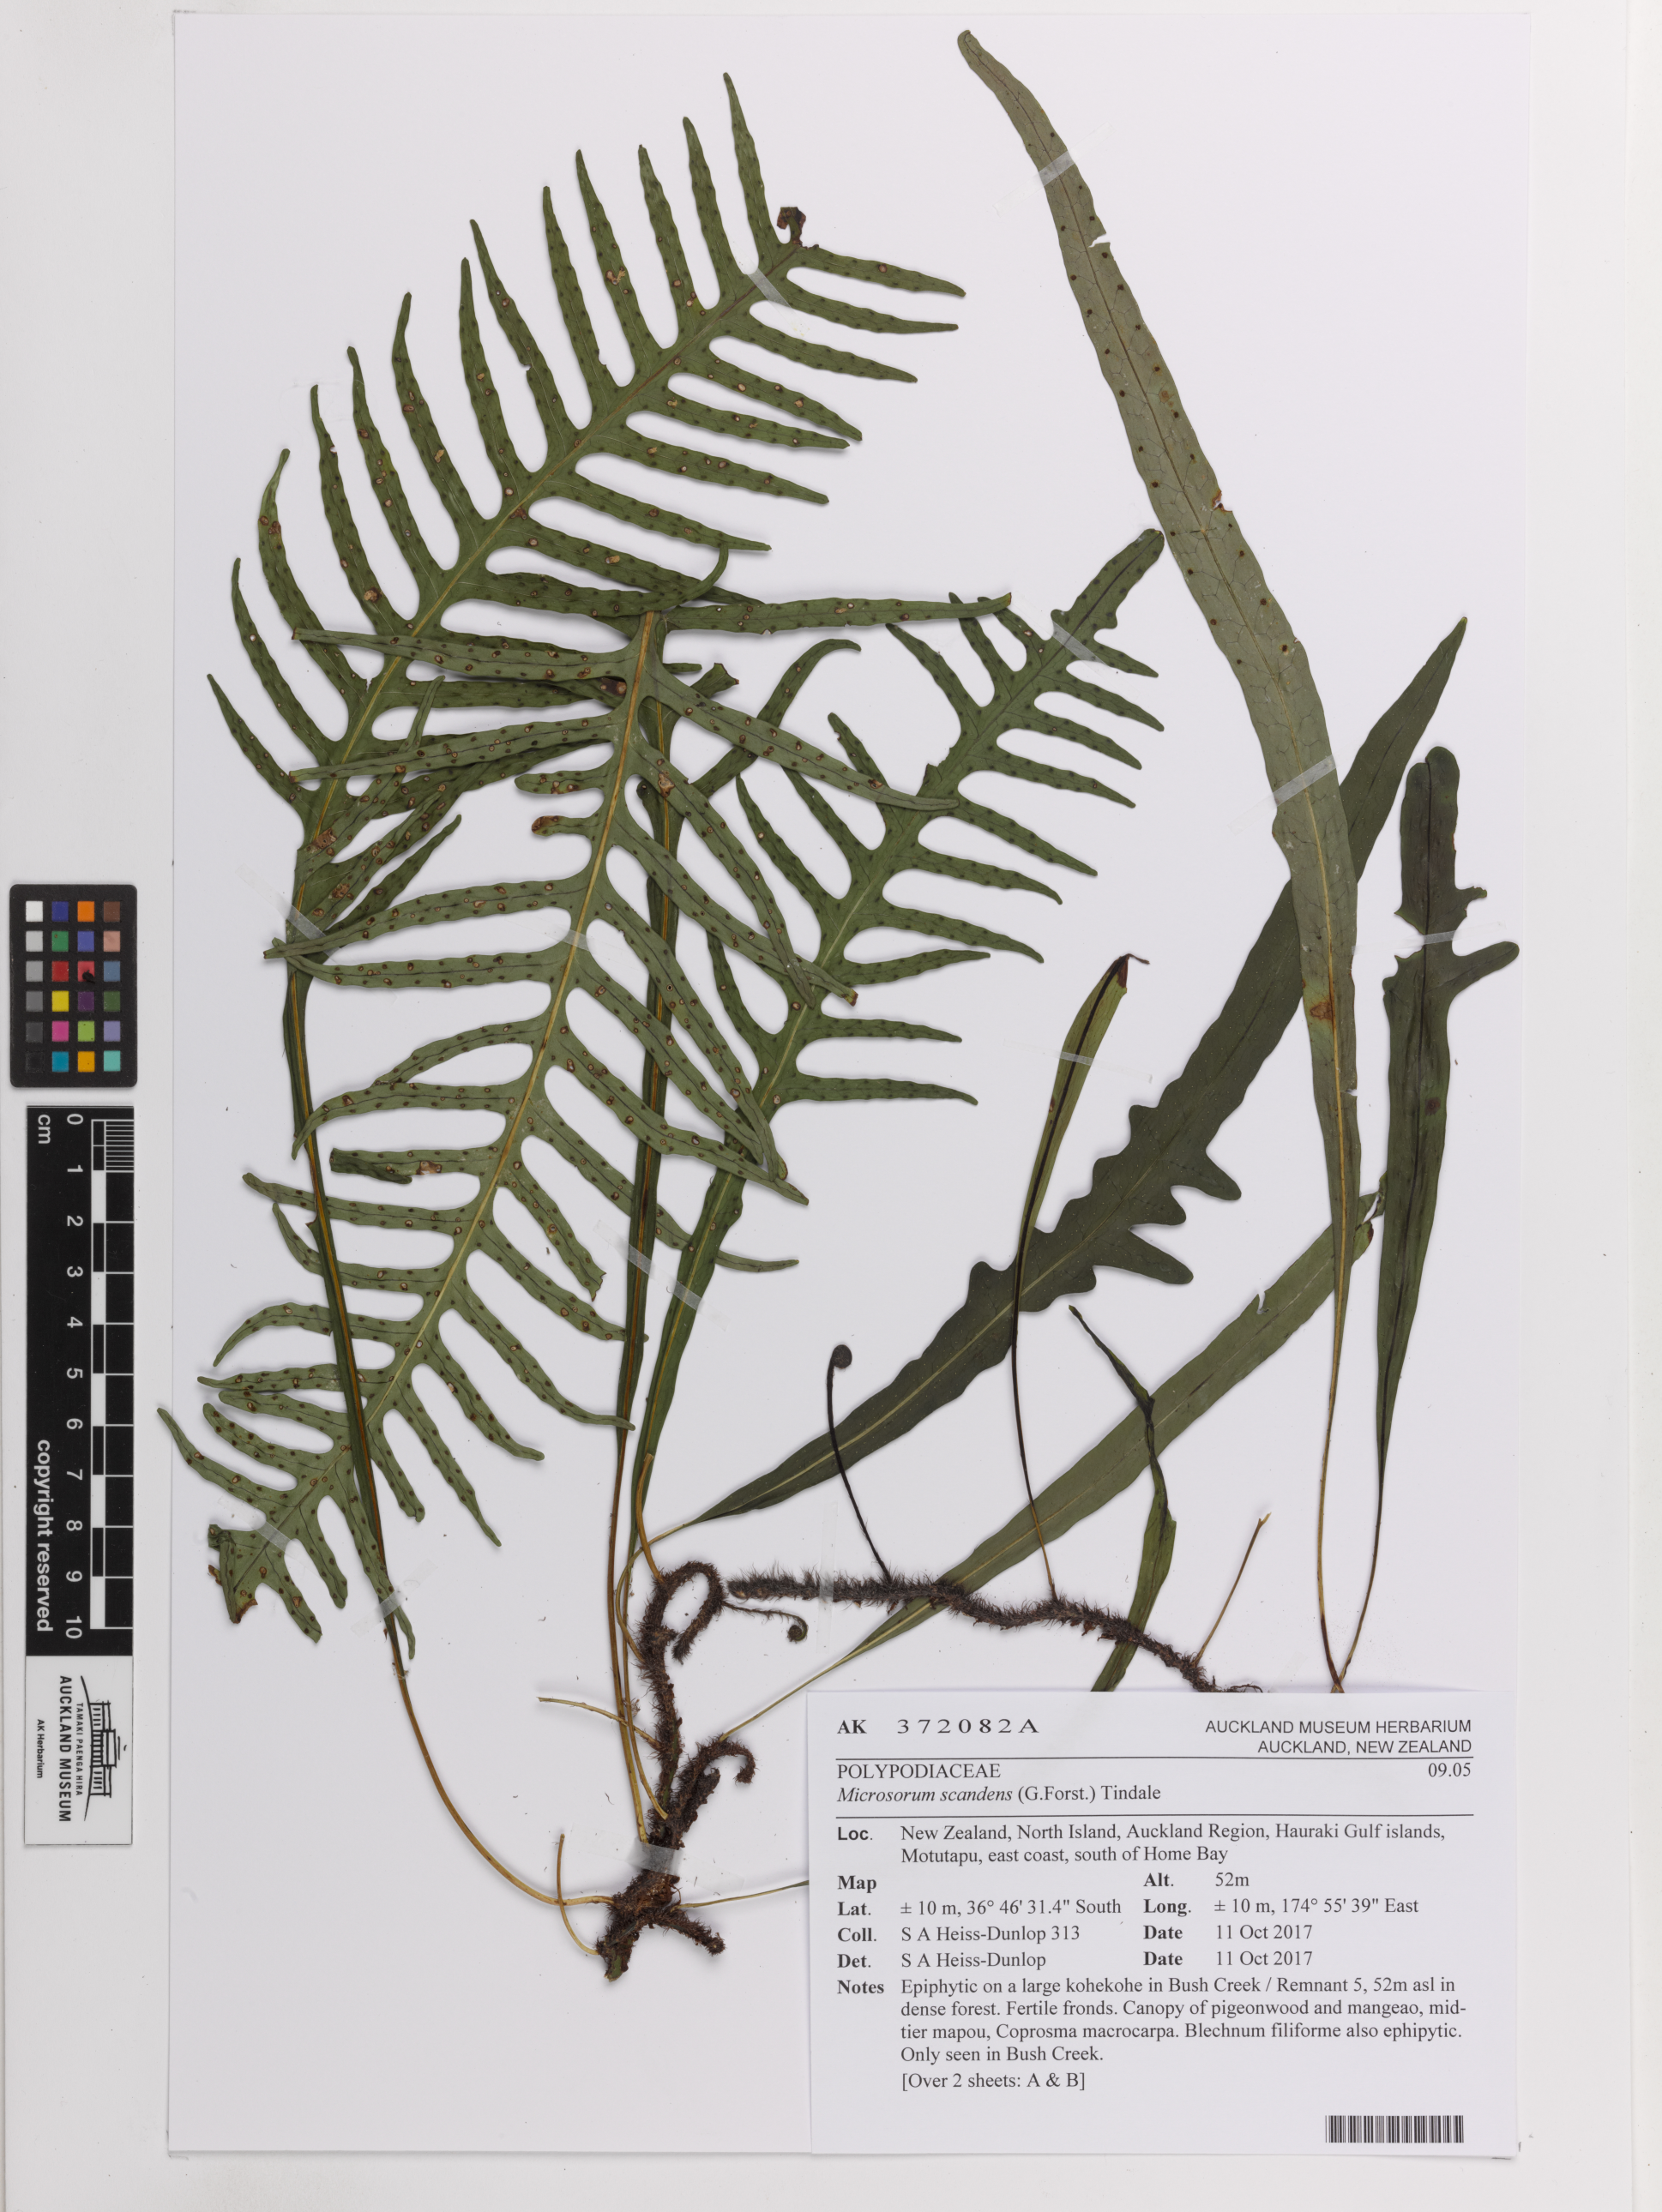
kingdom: Plantae
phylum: Tracheophyta
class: Polypodiopsida
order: Polypodiales
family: Polypodiaceae
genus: Lecanopteris
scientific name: Lecanopteris scandens
